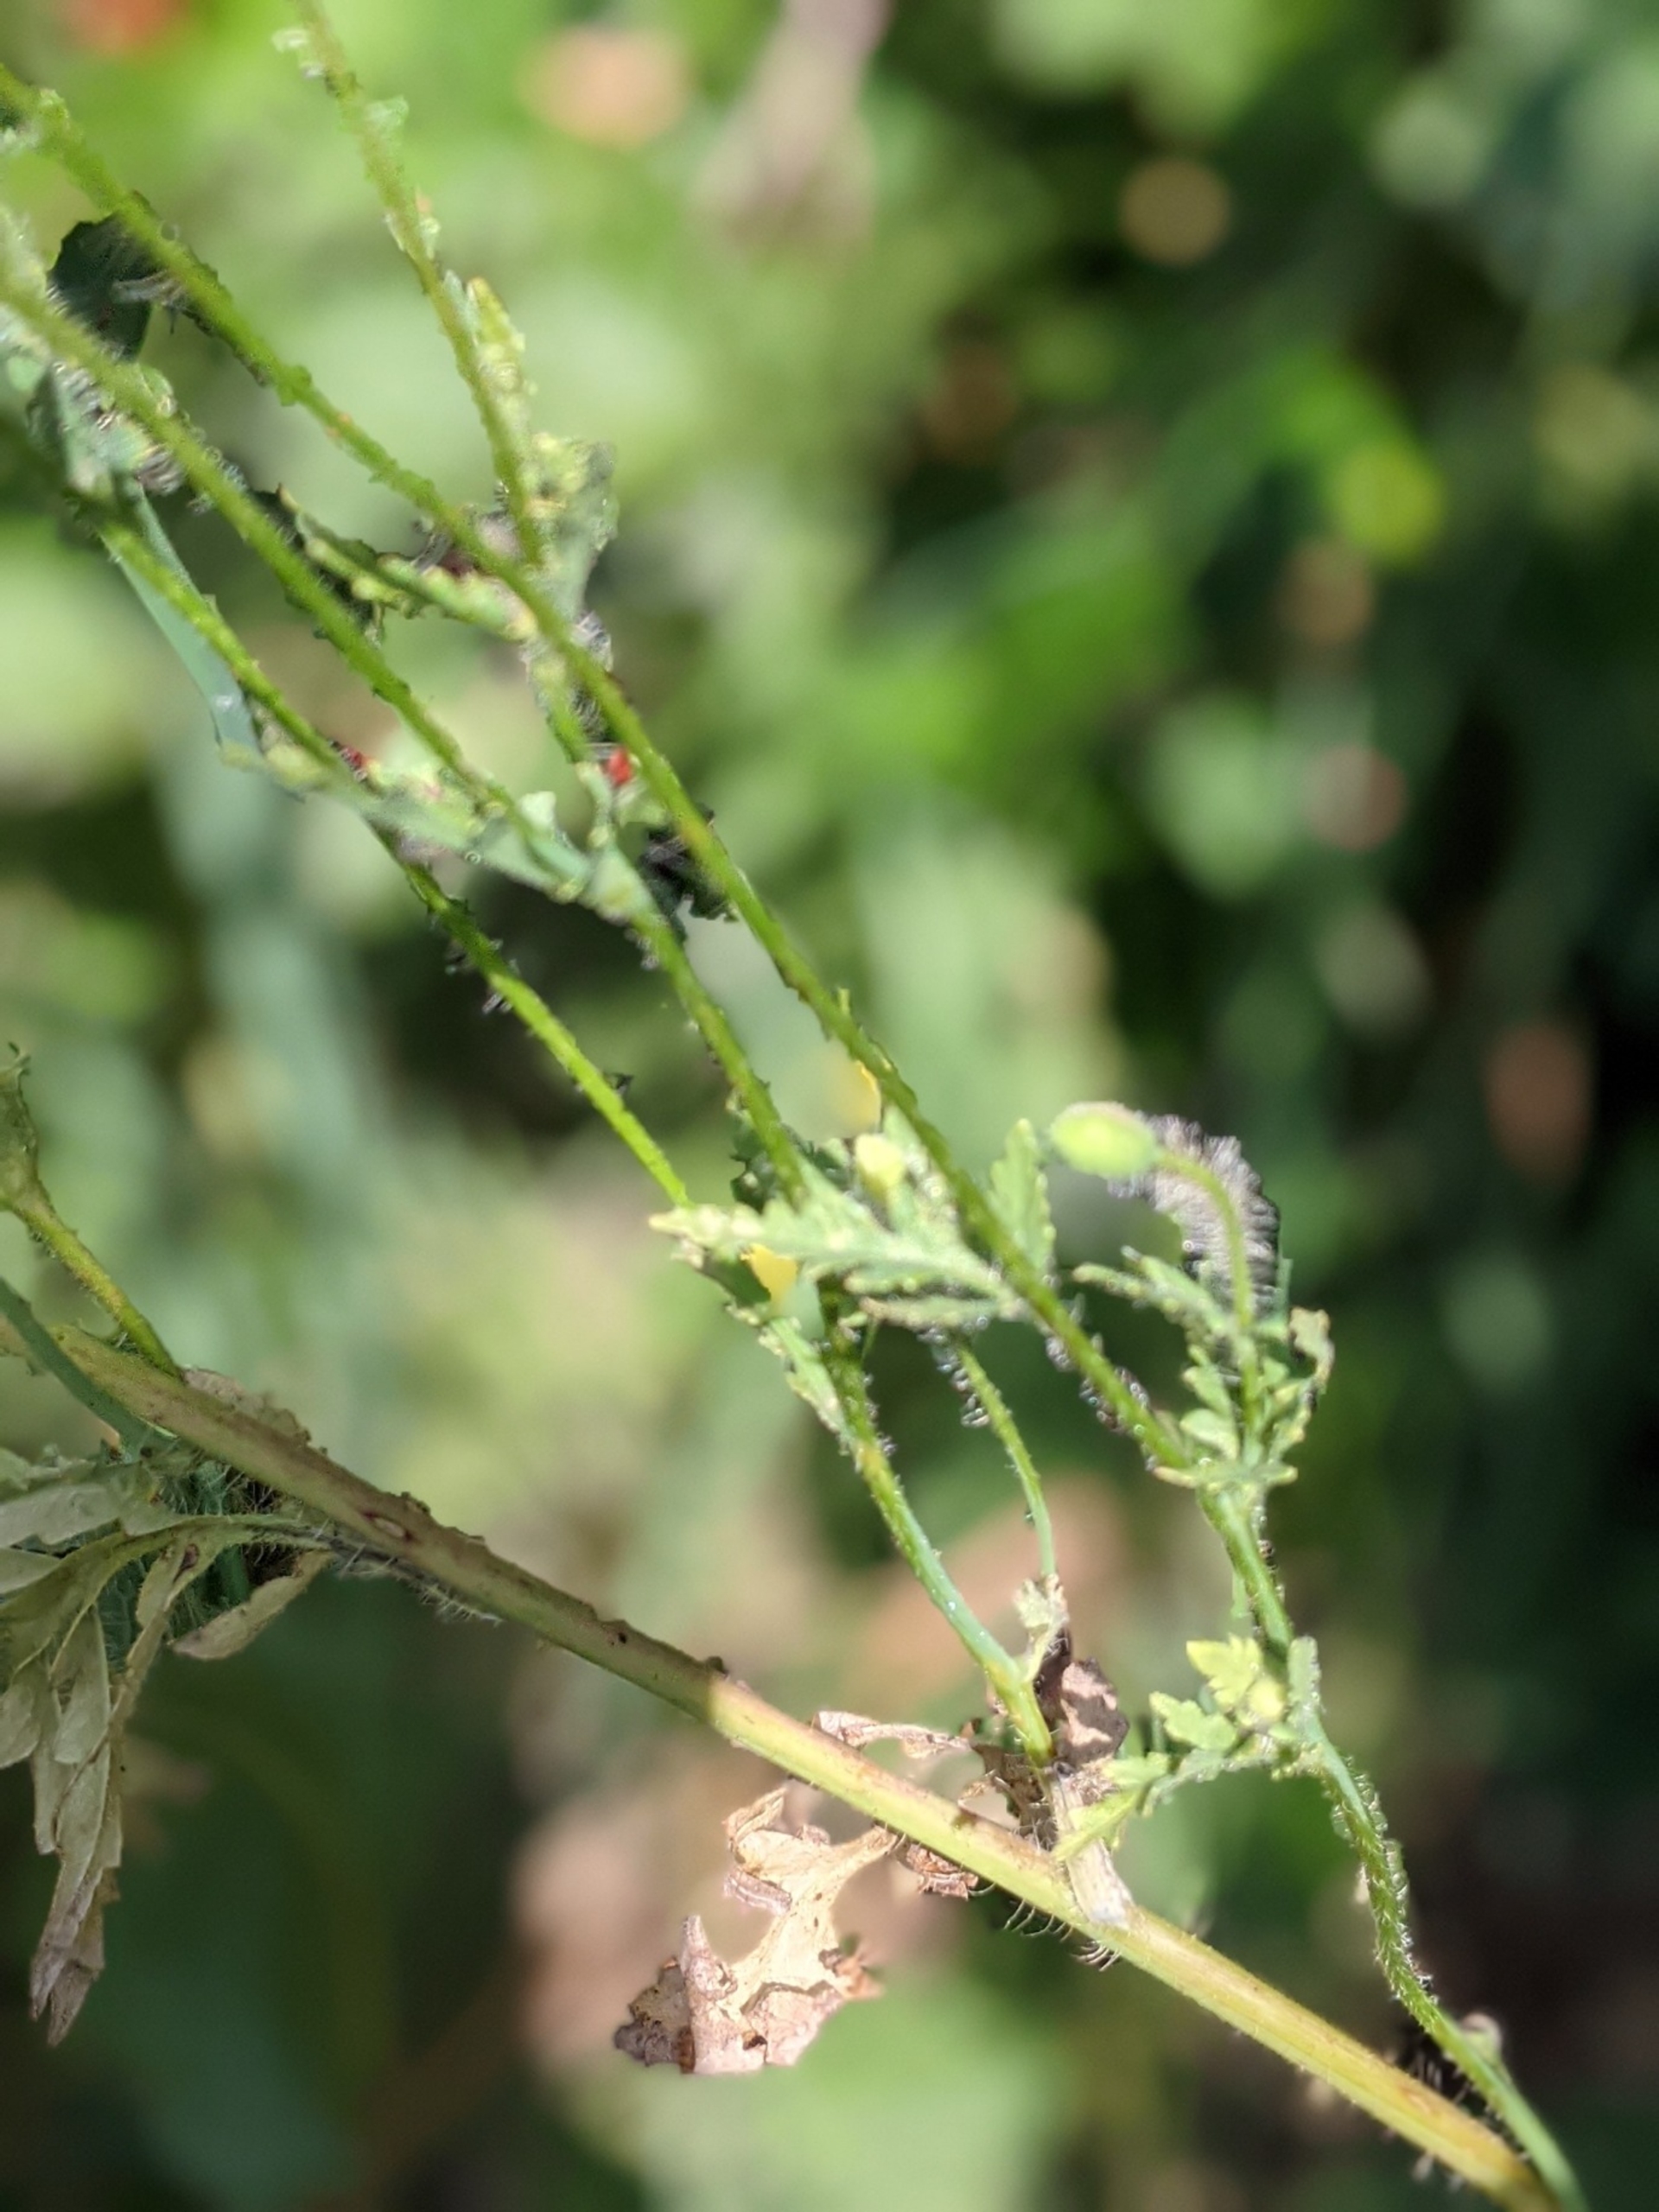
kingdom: Plantae
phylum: Tracheophyta
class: Magnoliopsida
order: Ranunculales
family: Papaveraceae
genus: Papaver
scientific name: Papaver rhoeas
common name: Korn-valmue
